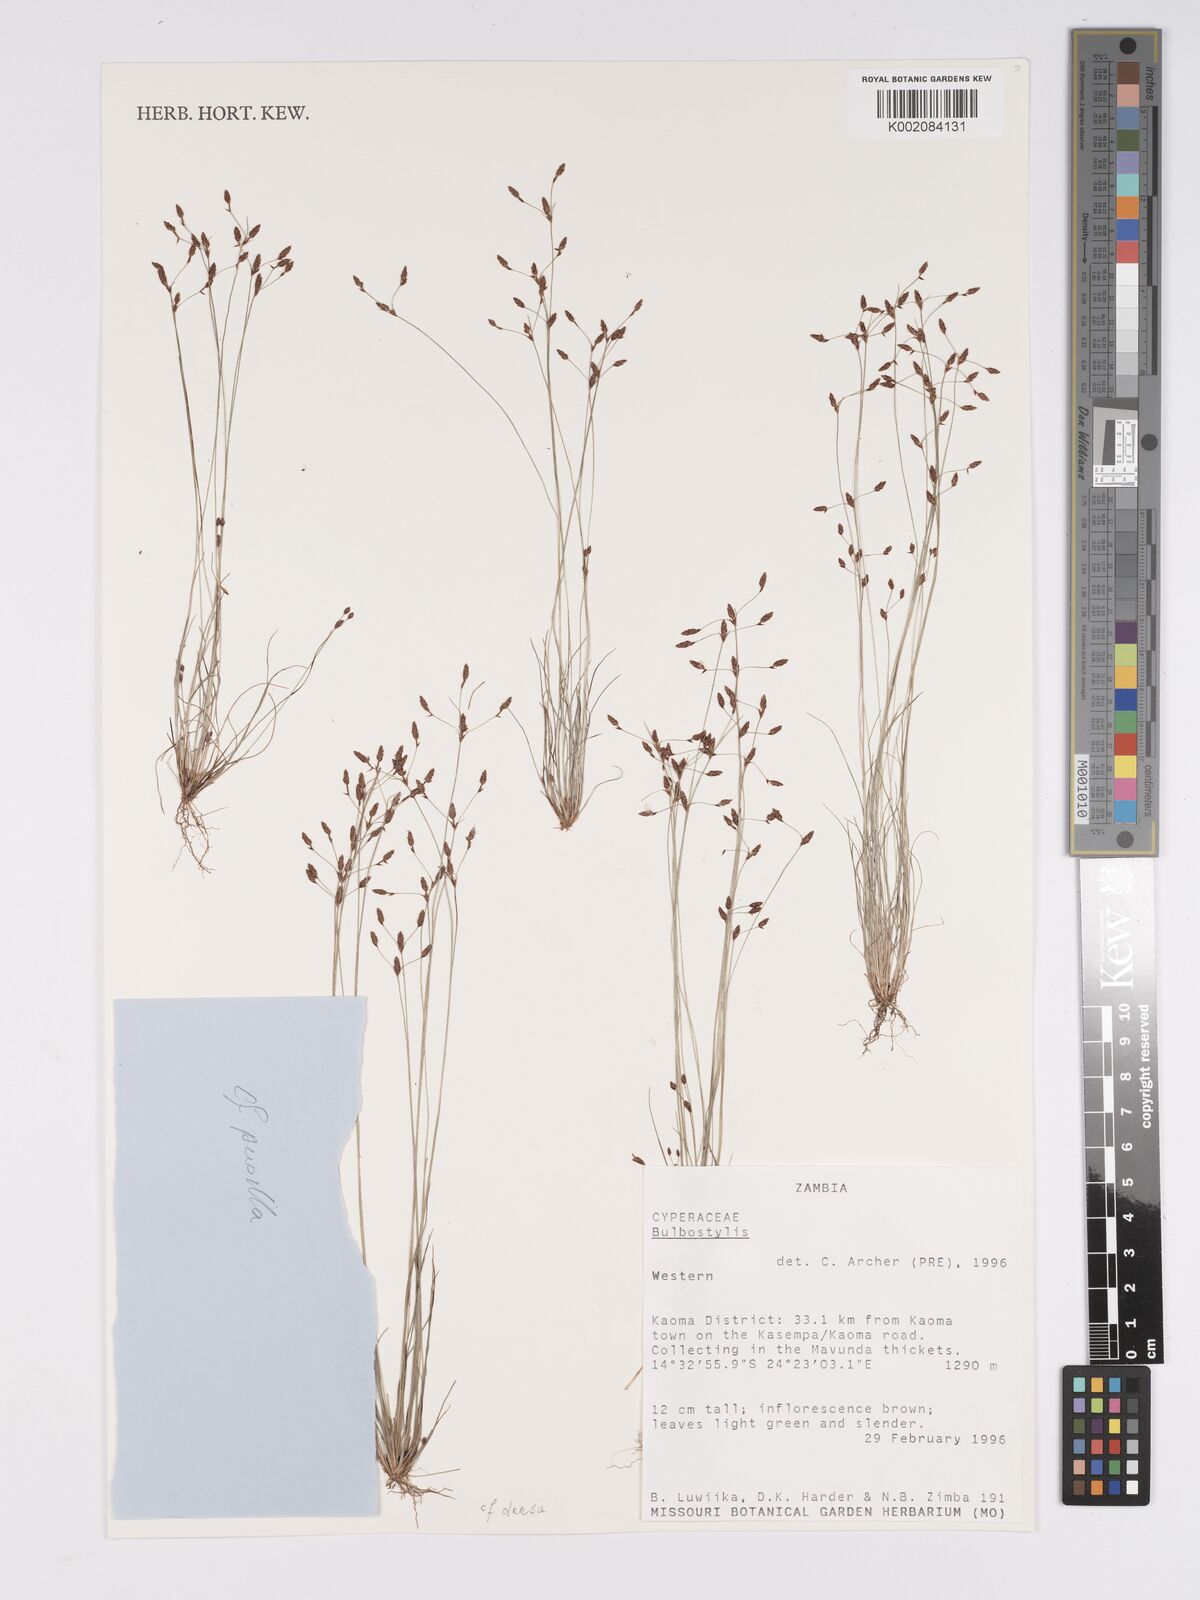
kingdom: Plantae
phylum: Tracheophyta
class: Liliopsida
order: Poales
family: Cyperaceae
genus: Bulbostylis
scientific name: Bulbostylis
